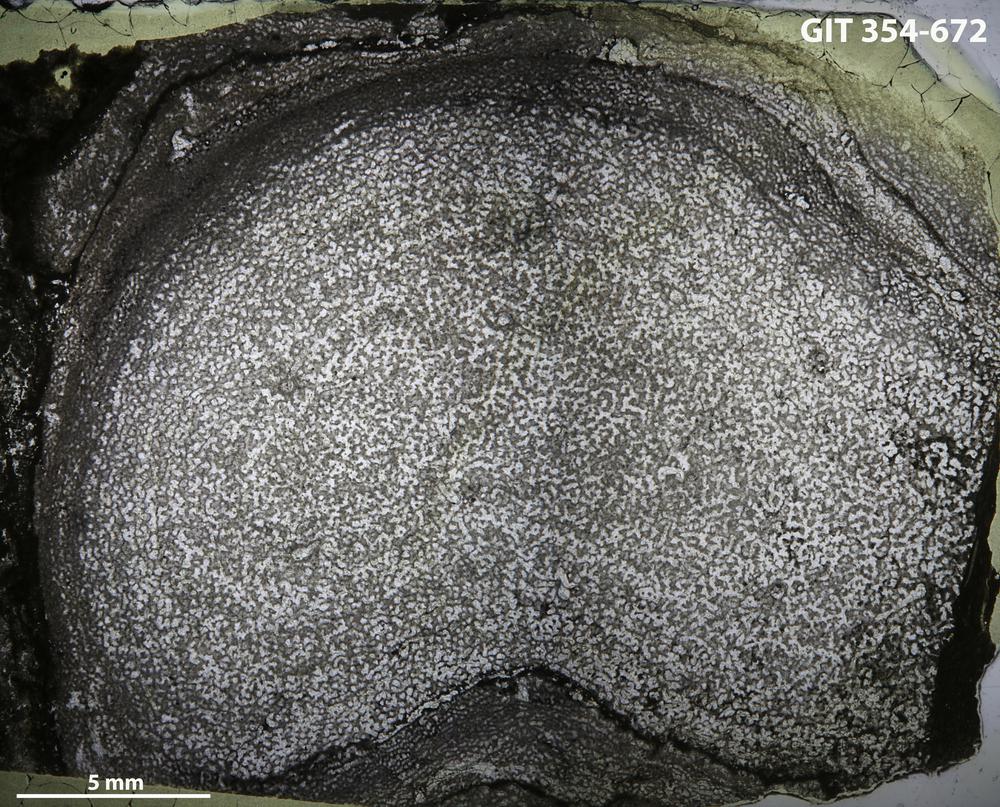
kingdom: Animalia
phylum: Porifera
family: Ecclimadictyidae
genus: Ecclimadictyon
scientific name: Ecclimadictyon
